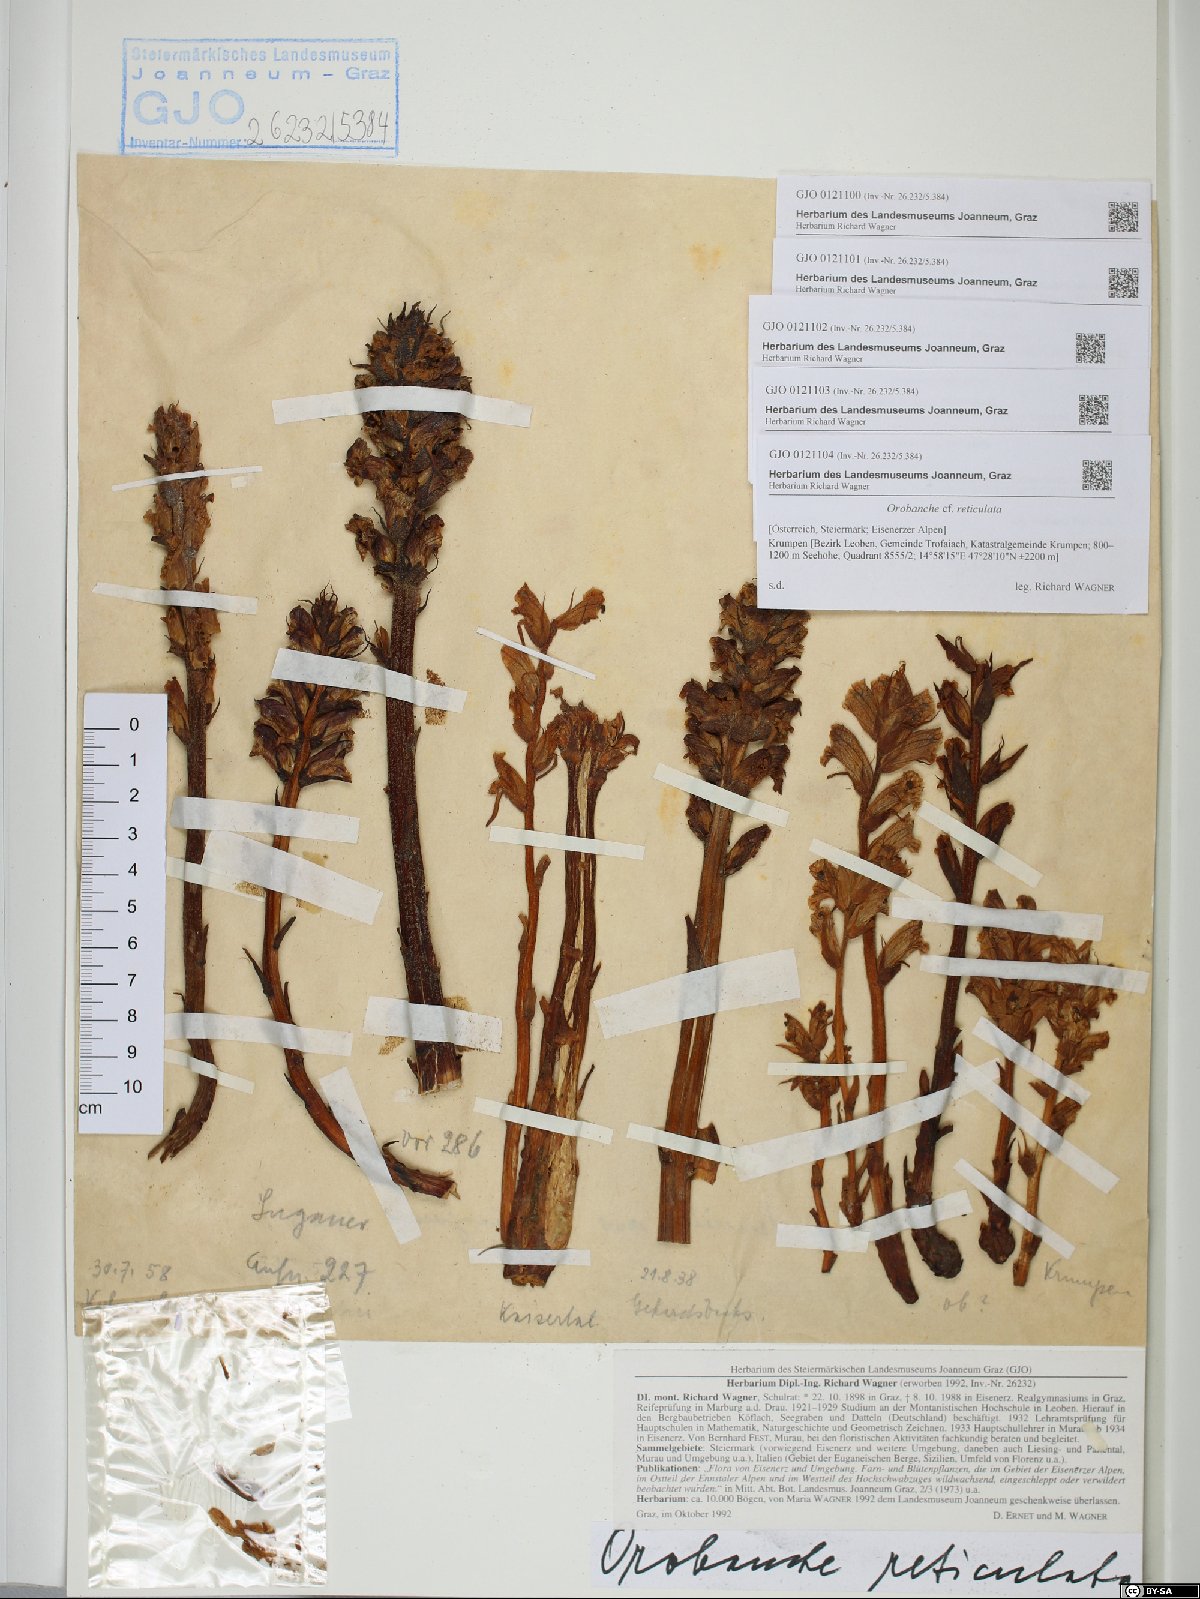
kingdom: Plantae
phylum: Tracheophyta
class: Magnoliopsida
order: Lamiales
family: Orobanchaceae
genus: Orobanche
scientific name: Orobanche reticulata
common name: Thistle broomrape
